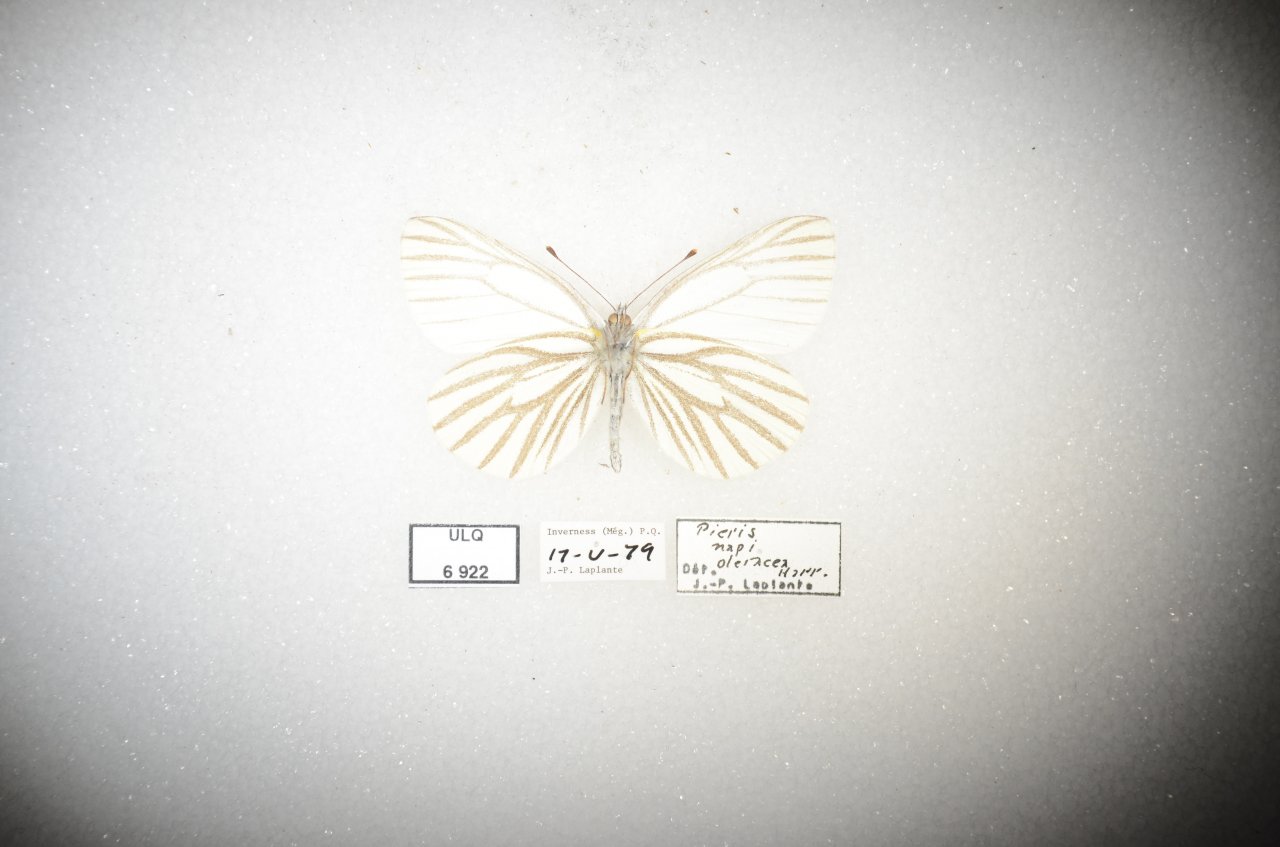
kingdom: Animalia
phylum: Arthropoda
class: Insecta
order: Lepidoptera
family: Pieridae
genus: Pieris
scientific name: Pieris oleracea
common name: Mustard White
